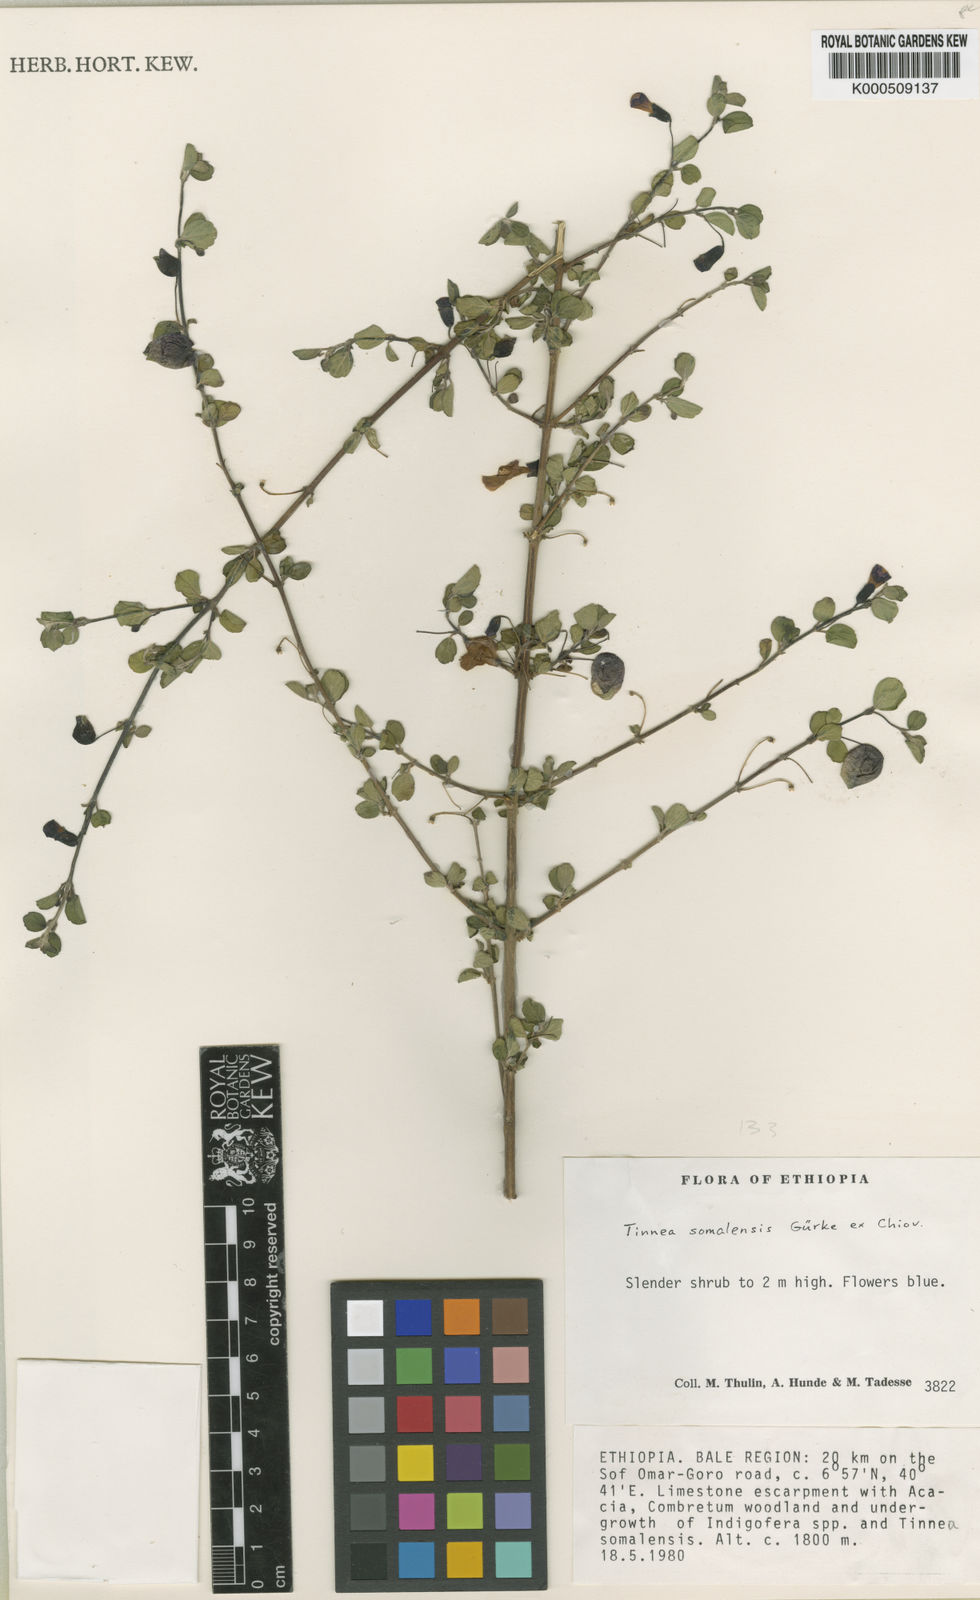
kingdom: Plantae
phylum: Tracheophyta
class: Magnoliopsida
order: Lamiales
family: Lamiaceae
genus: Tinnea
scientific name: Tinnea
